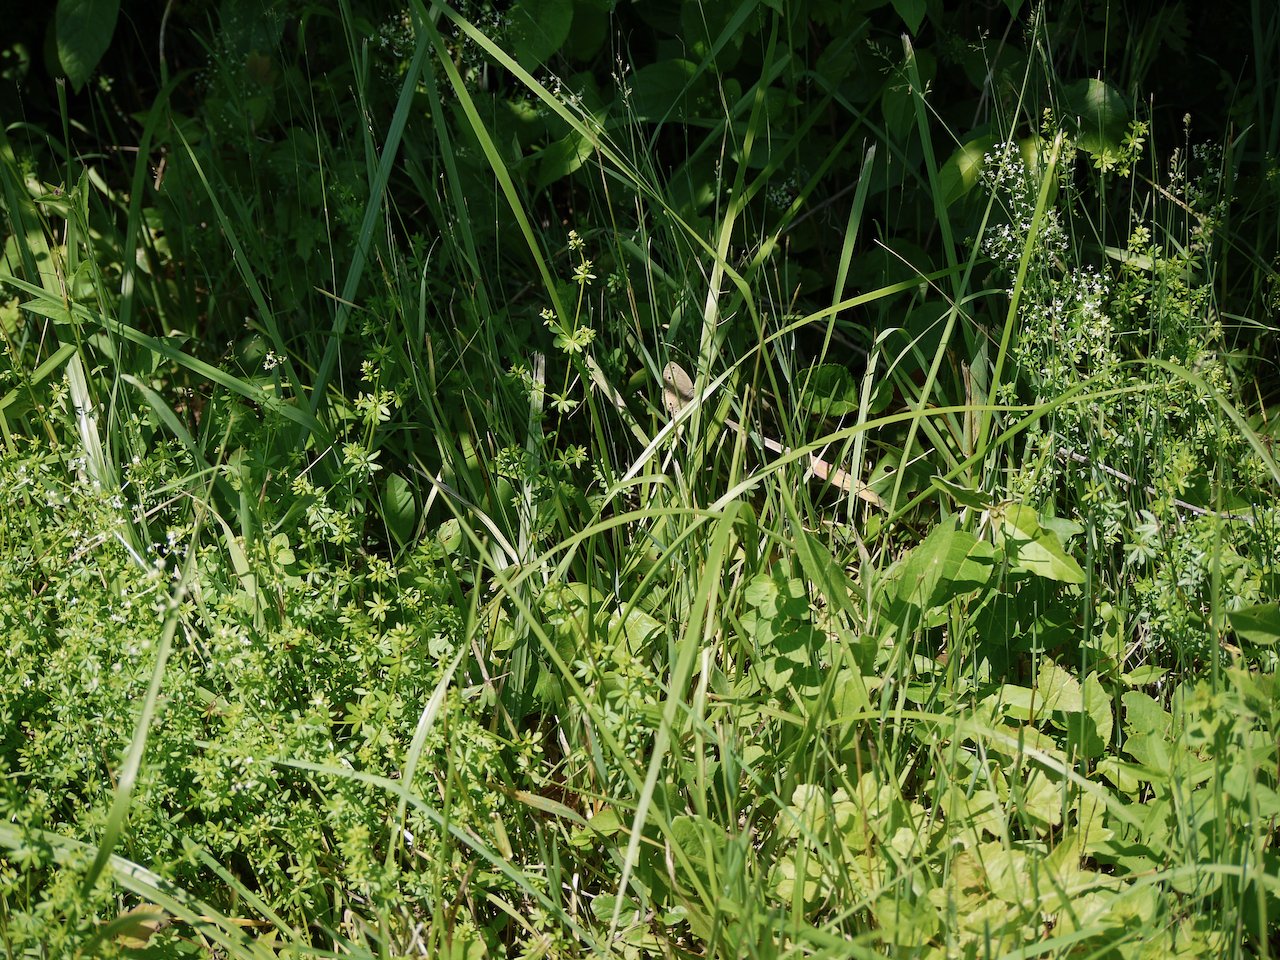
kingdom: Animalia
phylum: Arthropoda
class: Insecta
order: Lepidoptera
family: Nymphalidae
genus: Euptychia
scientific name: Euptychia cymela
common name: Little Wood Satyr
